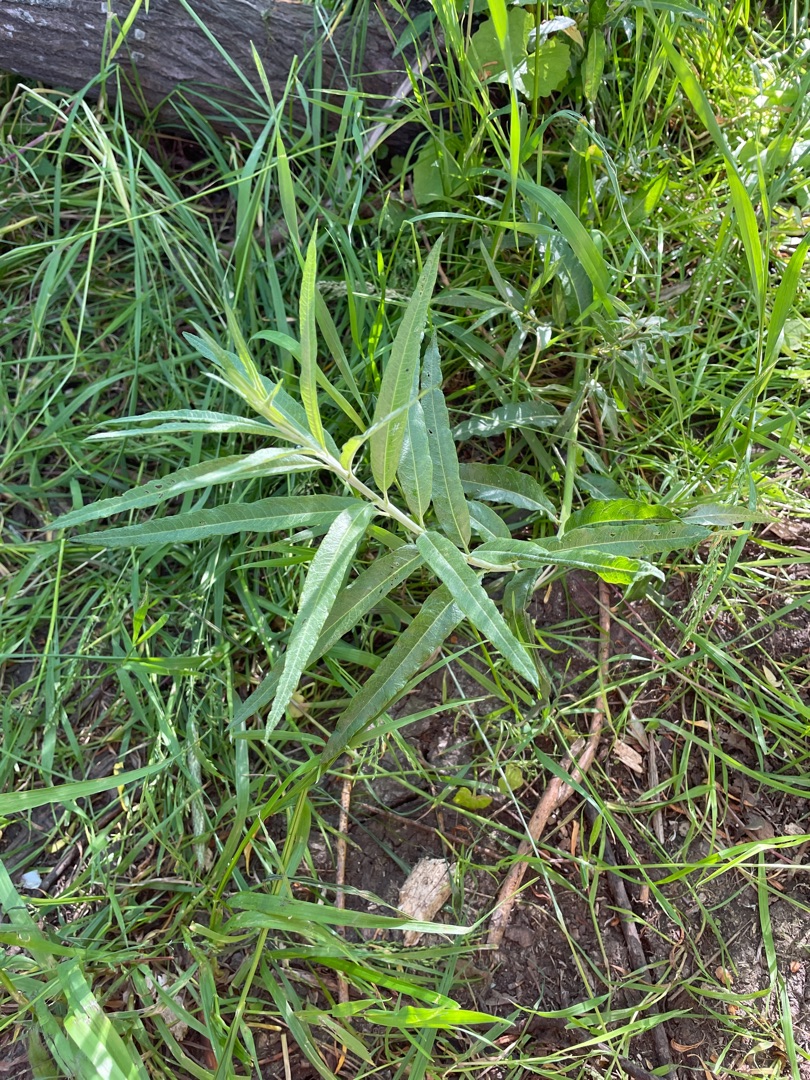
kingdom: Plantae
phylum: Tracheophyta
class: Magnoliopsida
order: Malpighiales
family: Salicaceae
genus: Salix
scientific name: Salix viminalis
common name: Bånd-pil
